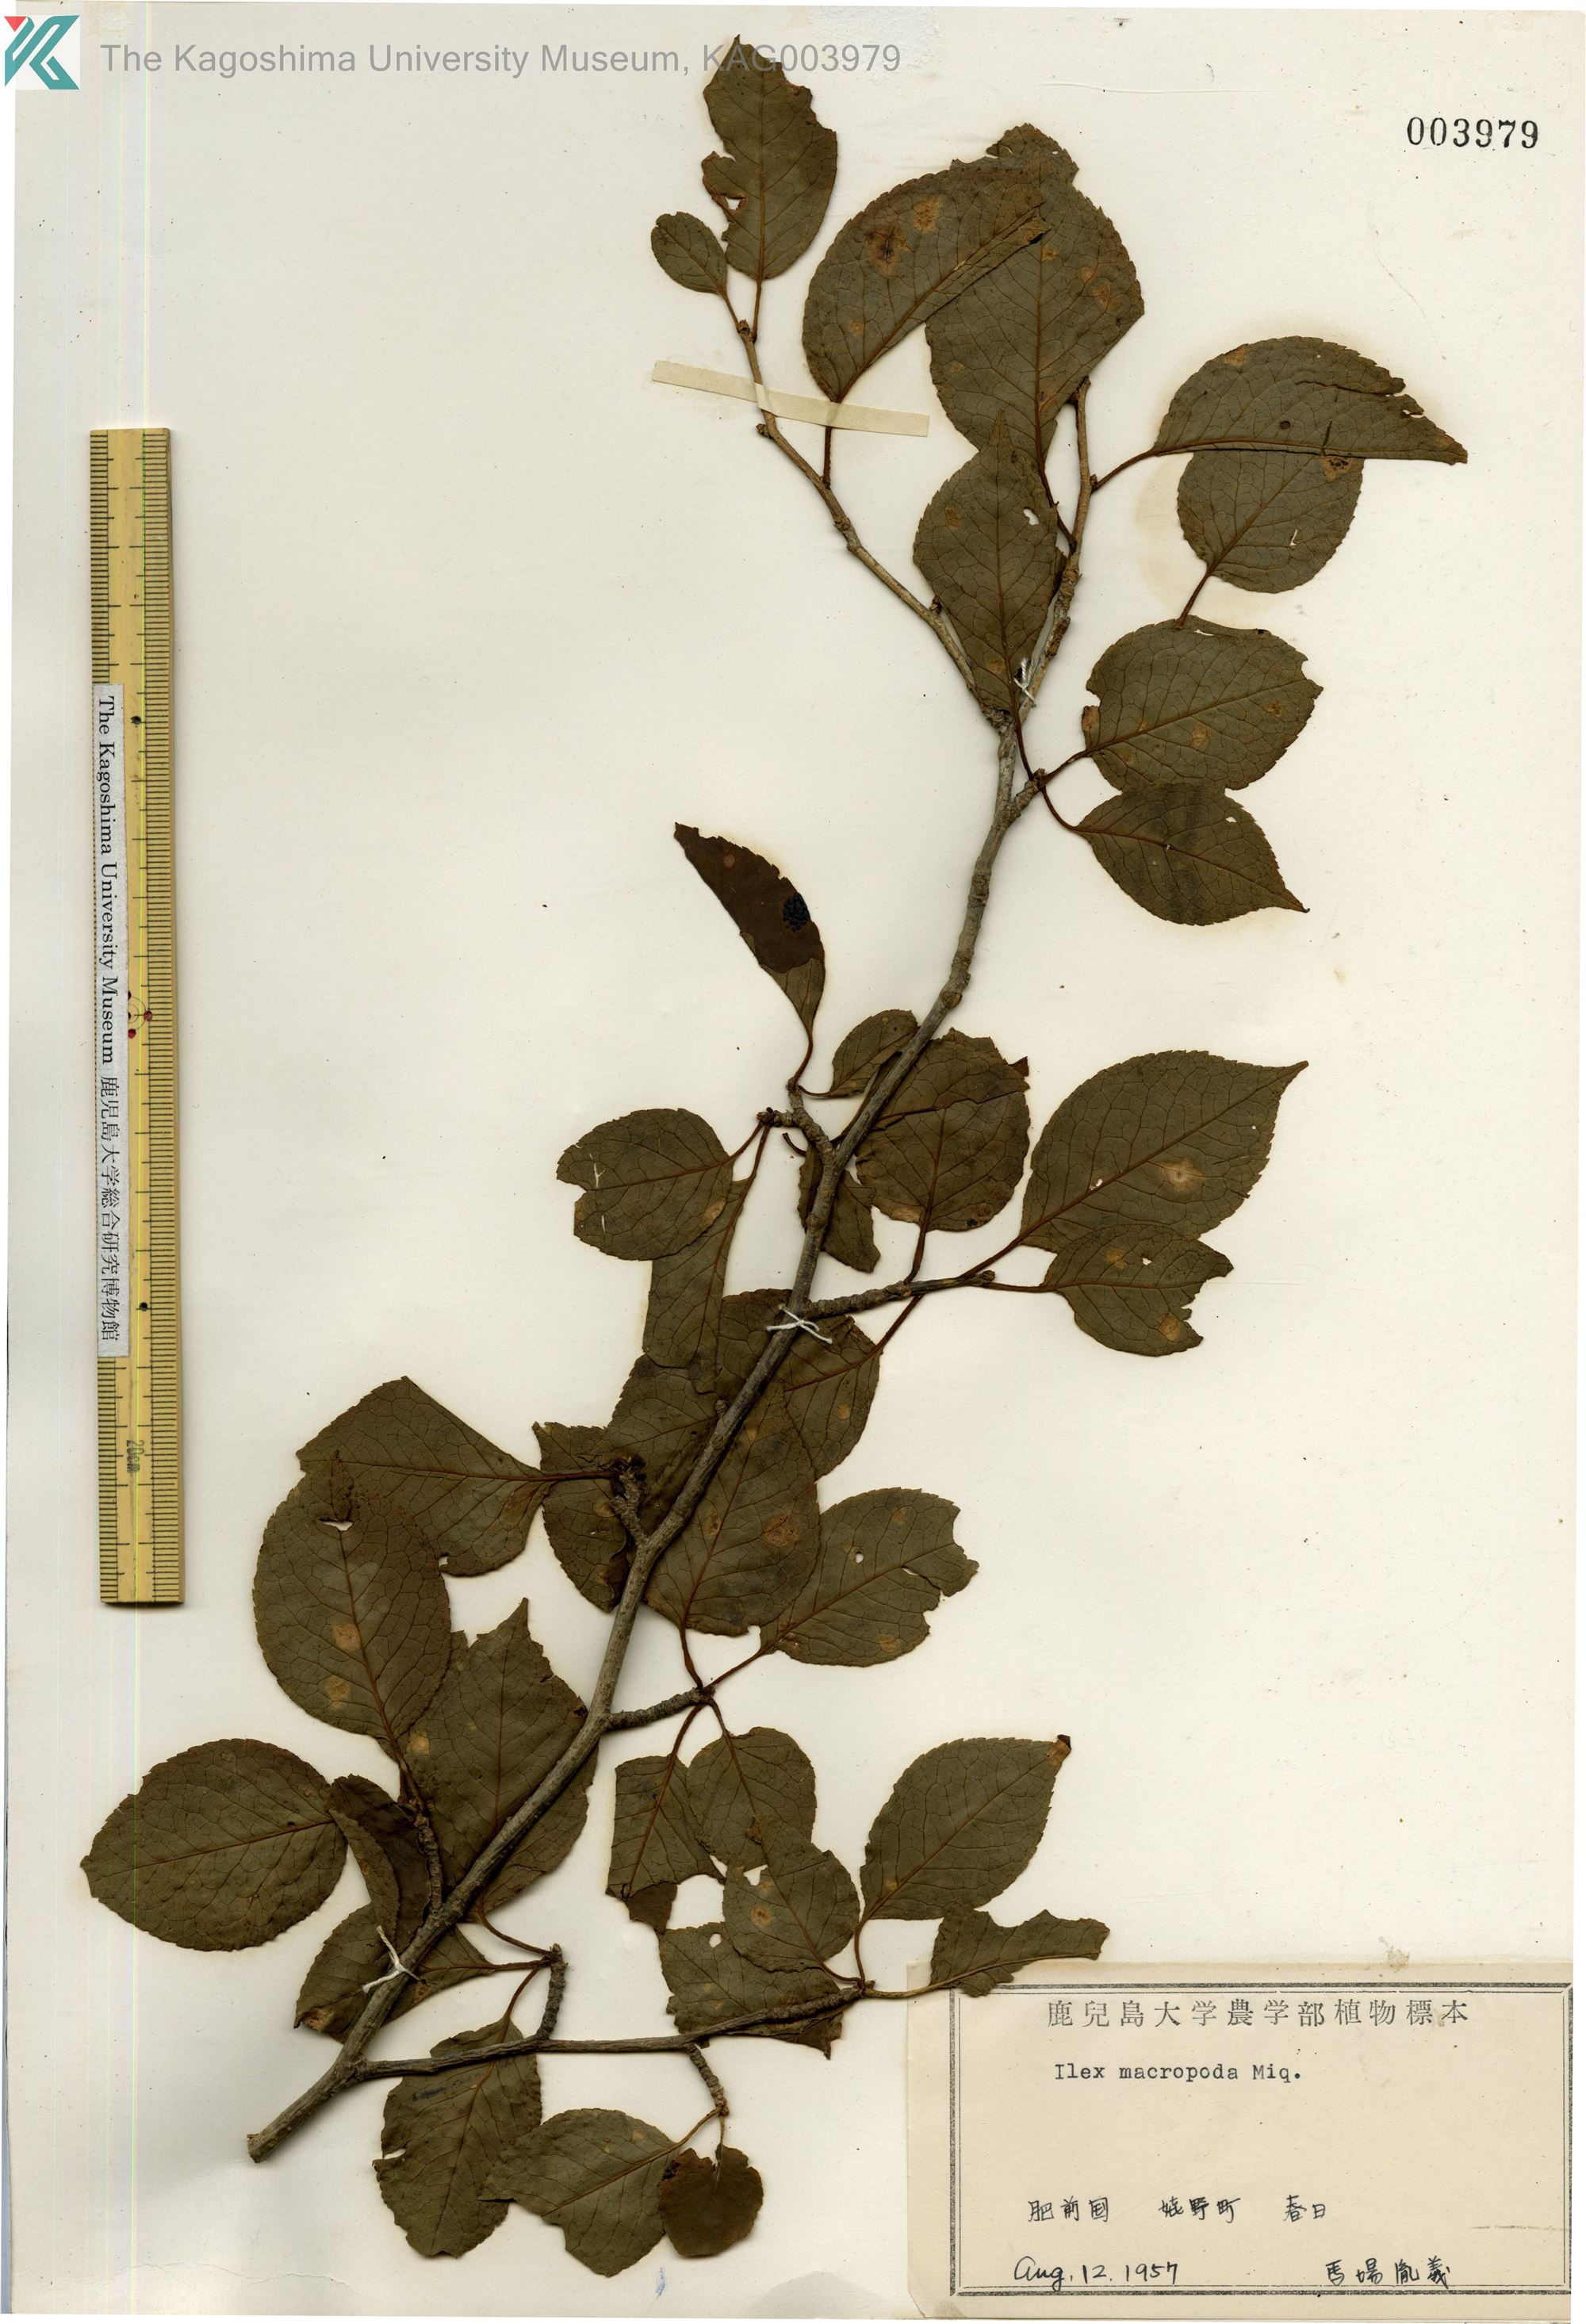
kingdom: Plantae
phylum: Tracheophyta
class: Magnoliopsida
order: Aquifoliales
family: Aquifoliaceae
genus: Ilex
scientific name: Ilex macropoda
